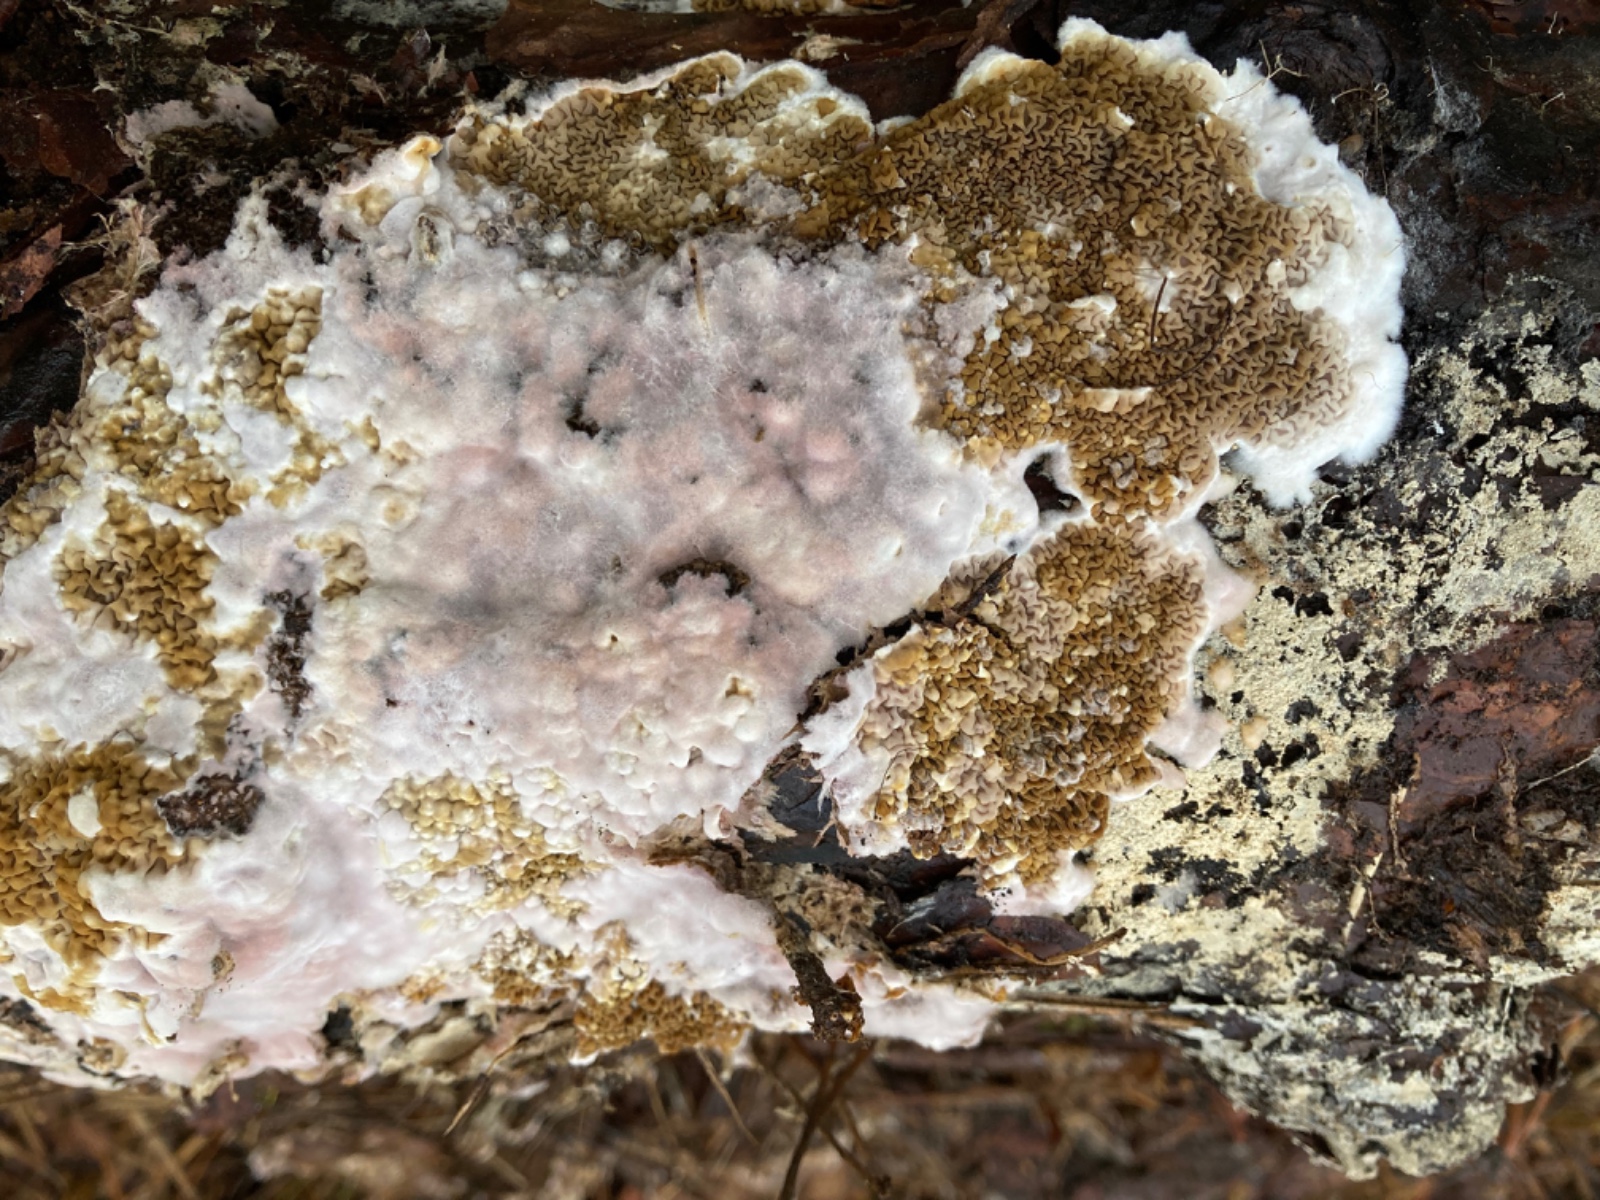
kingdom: Fungi
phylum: Basidiomycota
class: Agaricomycetes
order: Boletales
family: Serpulaceae
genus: Serpula
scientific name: Serpula himantioides
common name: tyndkødet hussvamp
